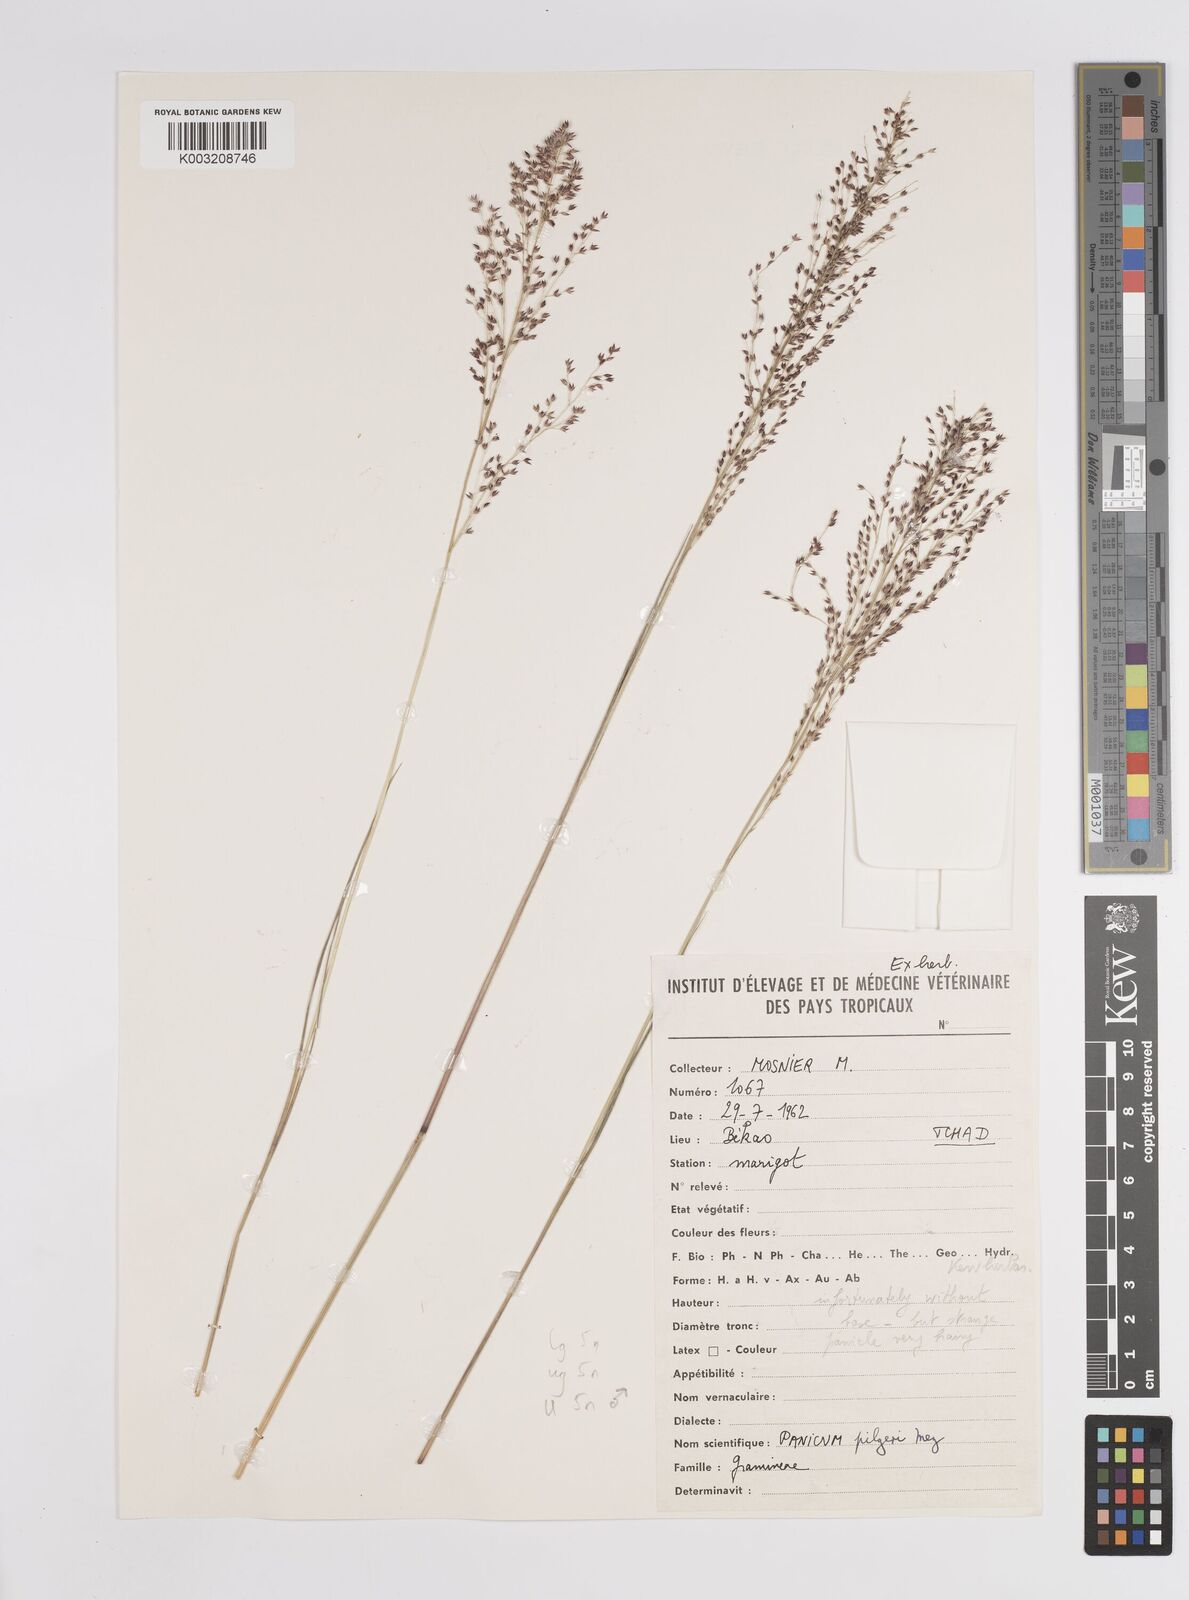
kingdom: Plantae
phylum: Tracheophyta
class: Liliopsida
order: Poales
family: Poaceae
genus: Panicum
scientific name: Panicum pilgeri
